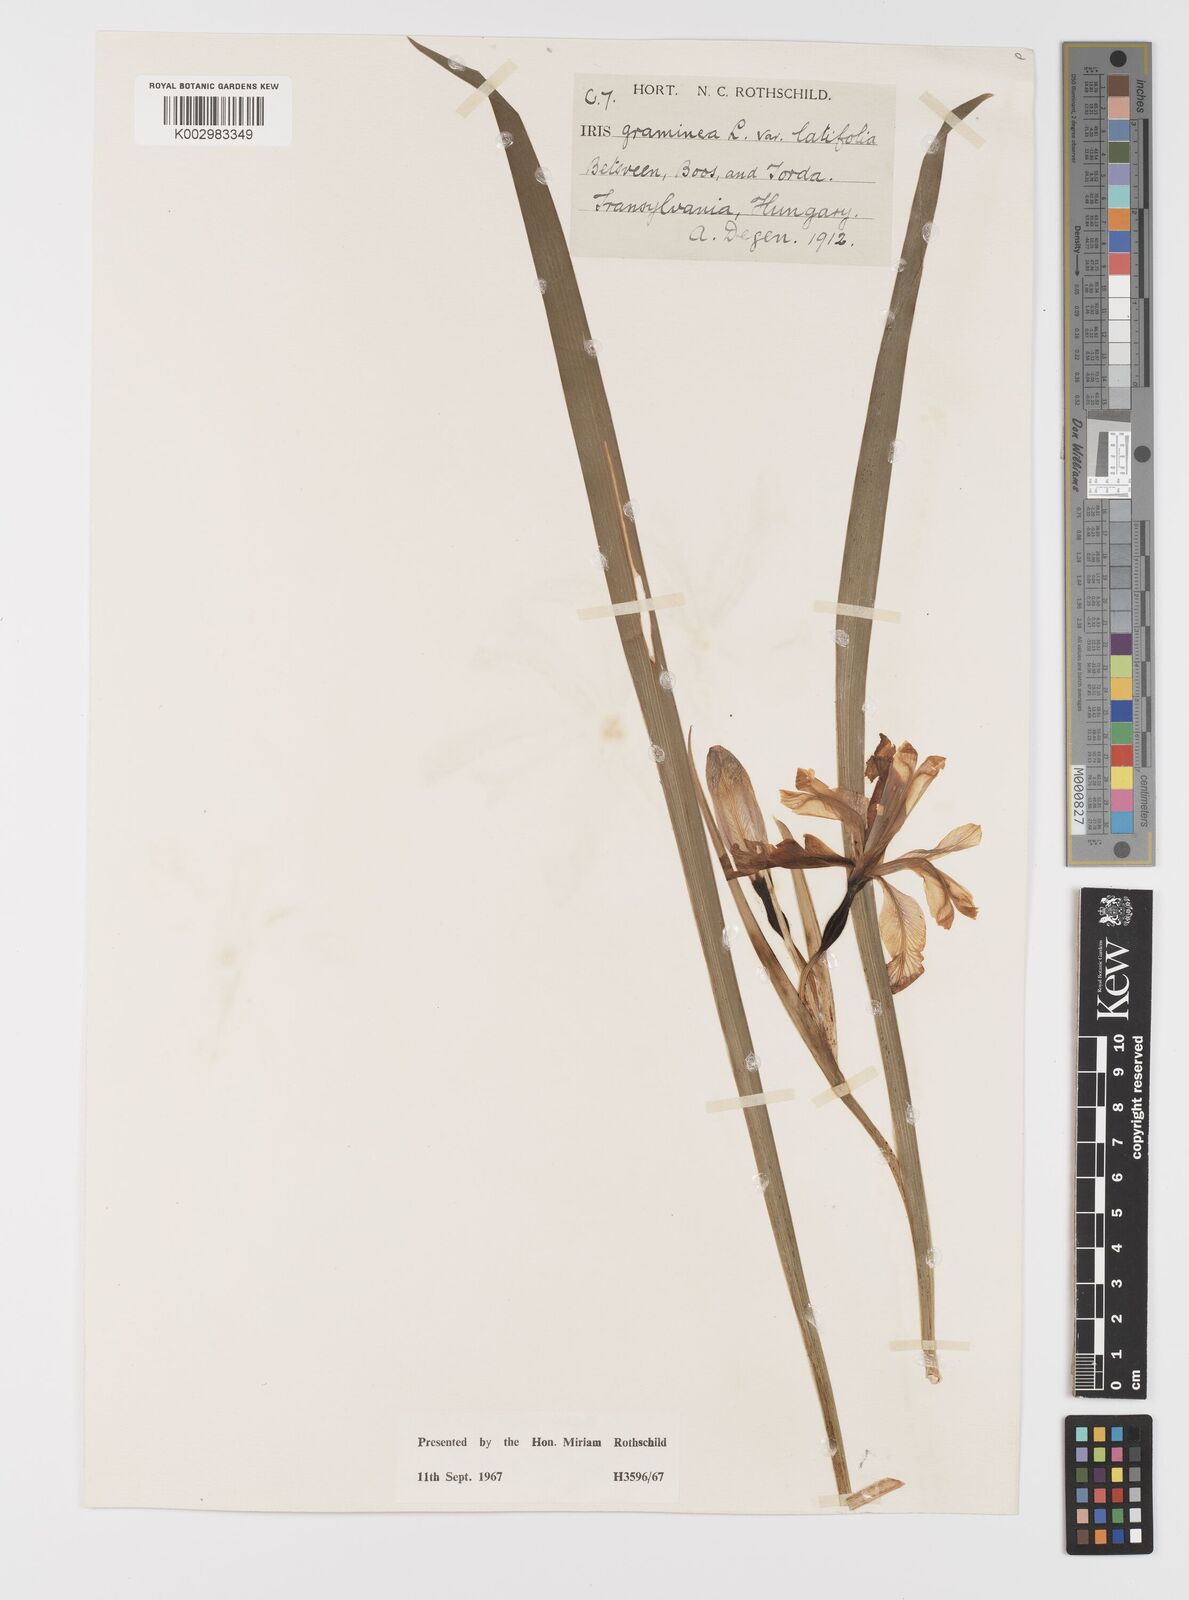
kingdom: Plantae
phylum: Tracheophyta
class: Liliopsida
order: Asparagales
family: Iridaceae
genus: Iris
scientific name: Iris graminea
